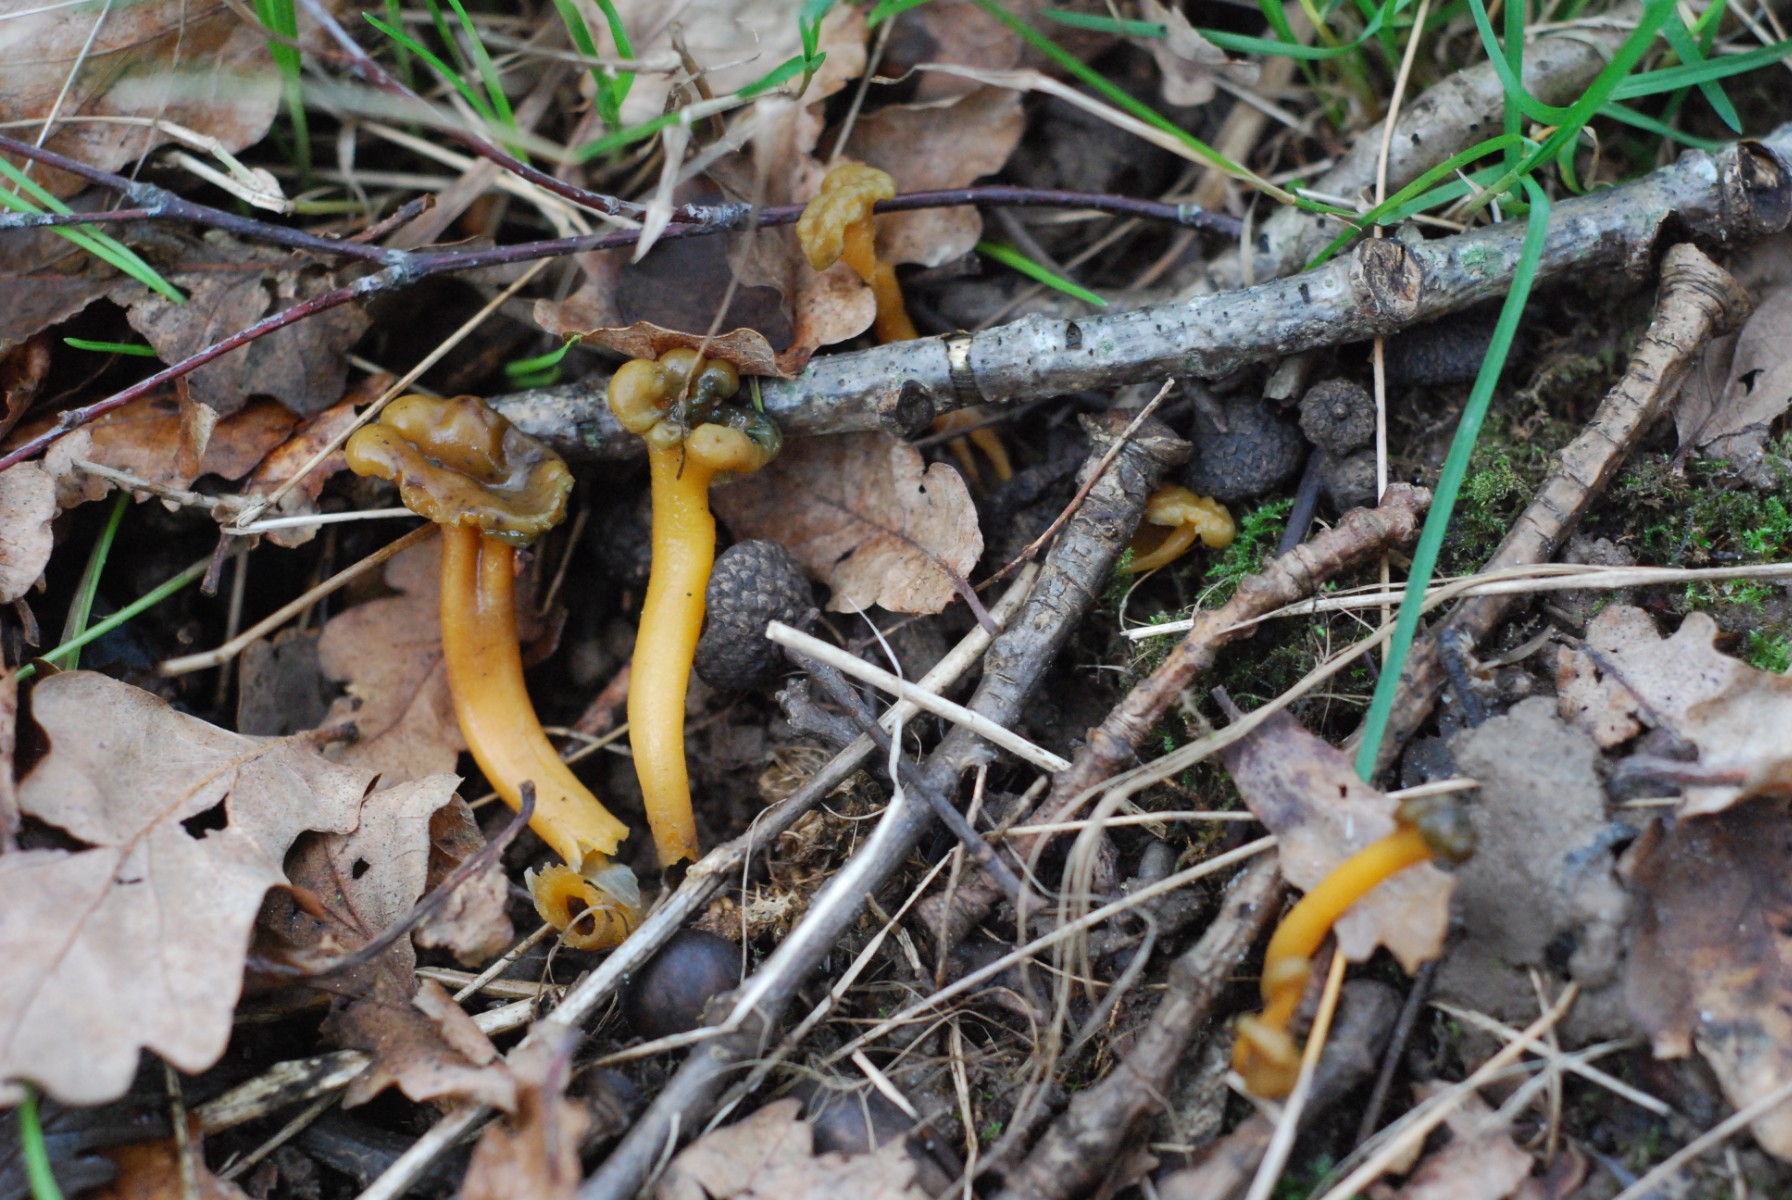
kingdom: Fungi
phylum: Ascomycota
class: Leotiomycetes
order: Leotiales
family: Leotiaceae
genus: Leotia
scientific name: Leotia lubrica
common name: ravsvamp
